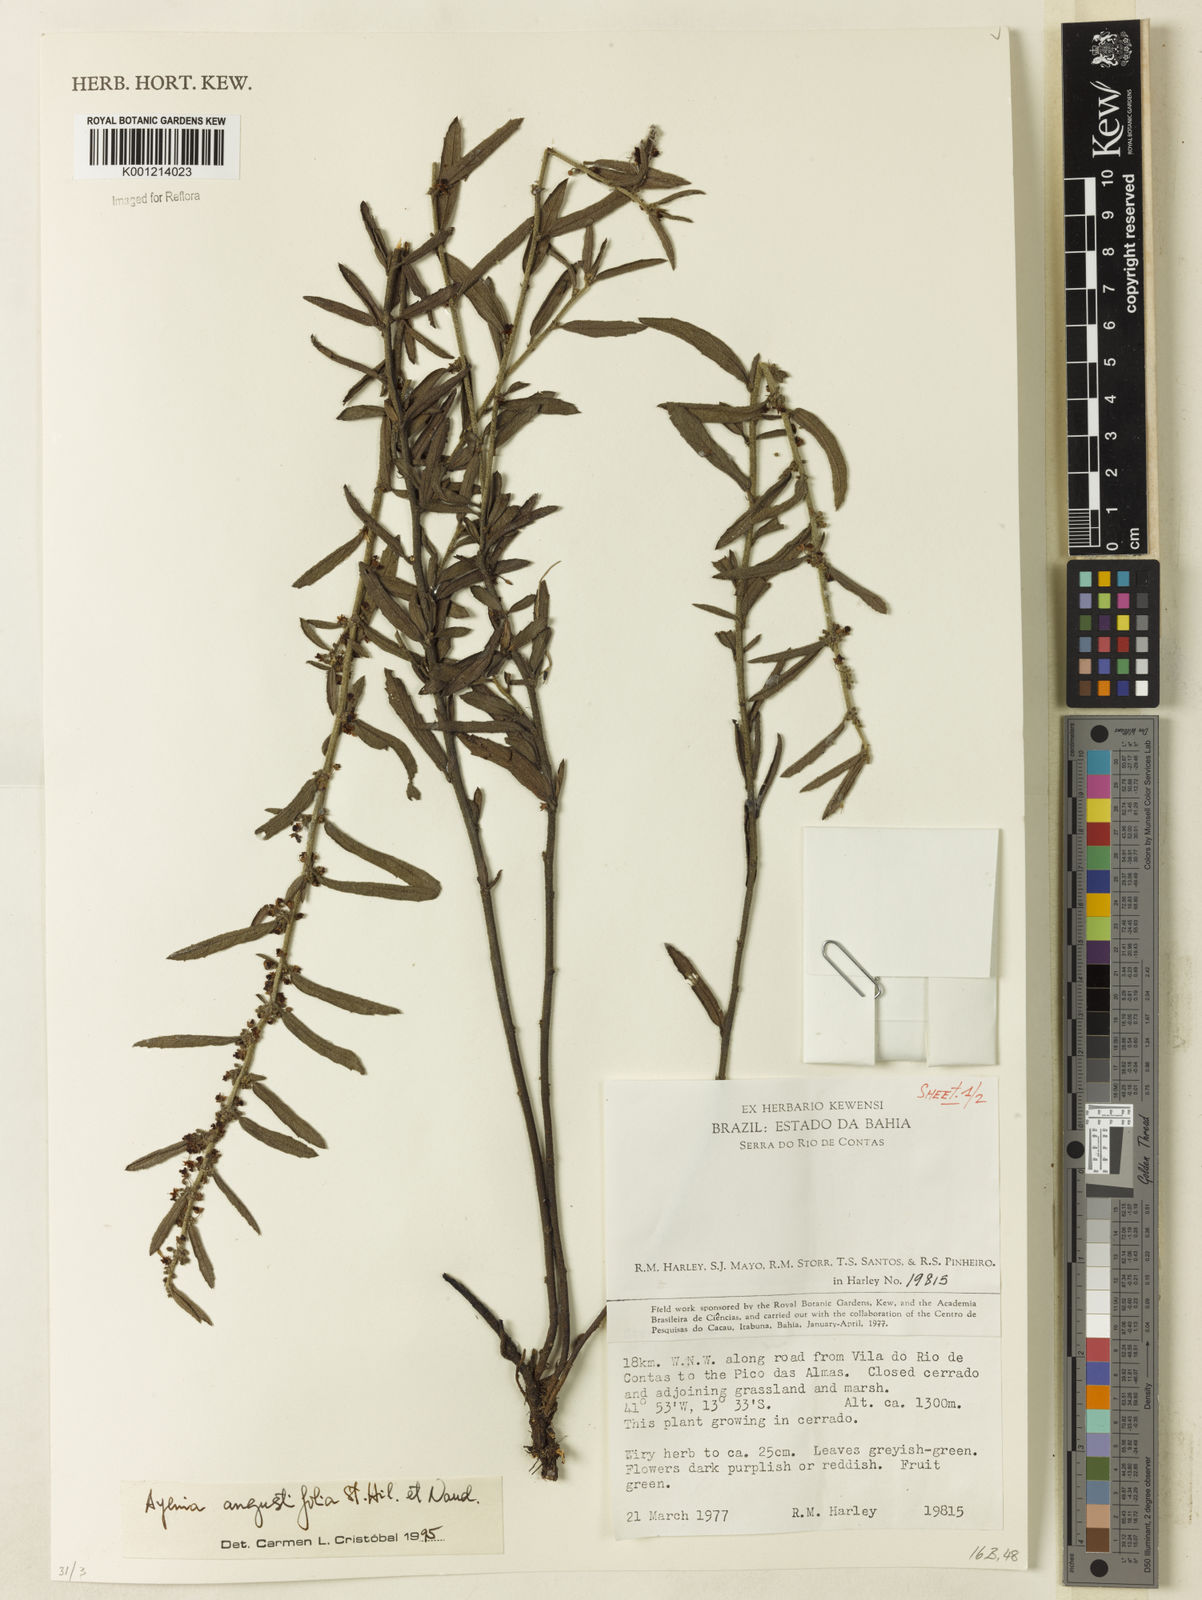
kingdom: Plantae
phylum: Tracheophyta
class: Magnoliopsida
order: Malvales
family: Malvaceae
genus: Ayenia
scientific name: Ayenia angustifolia
